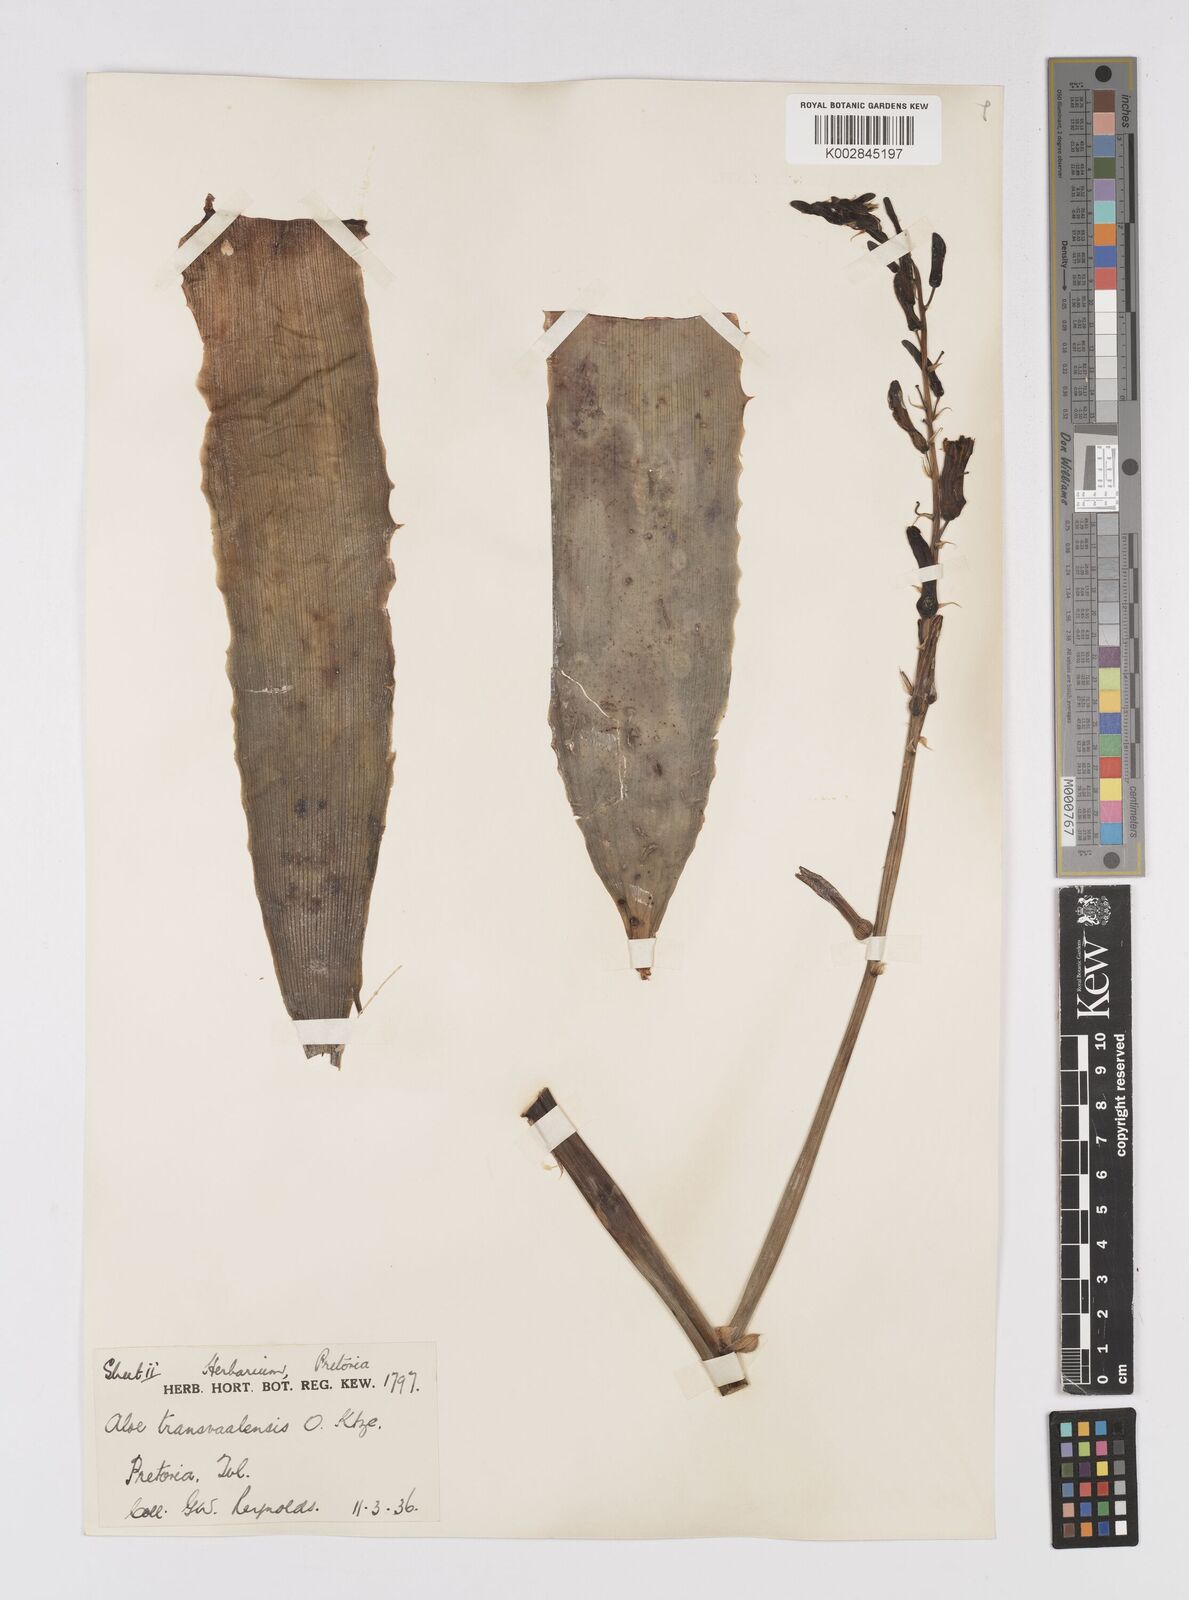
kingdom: Plantae
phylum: Tracheophyta
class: Liliopsida
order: Asparagales
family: Asphodelaceae
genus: Aloe
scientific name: Aloe transvaalensis
